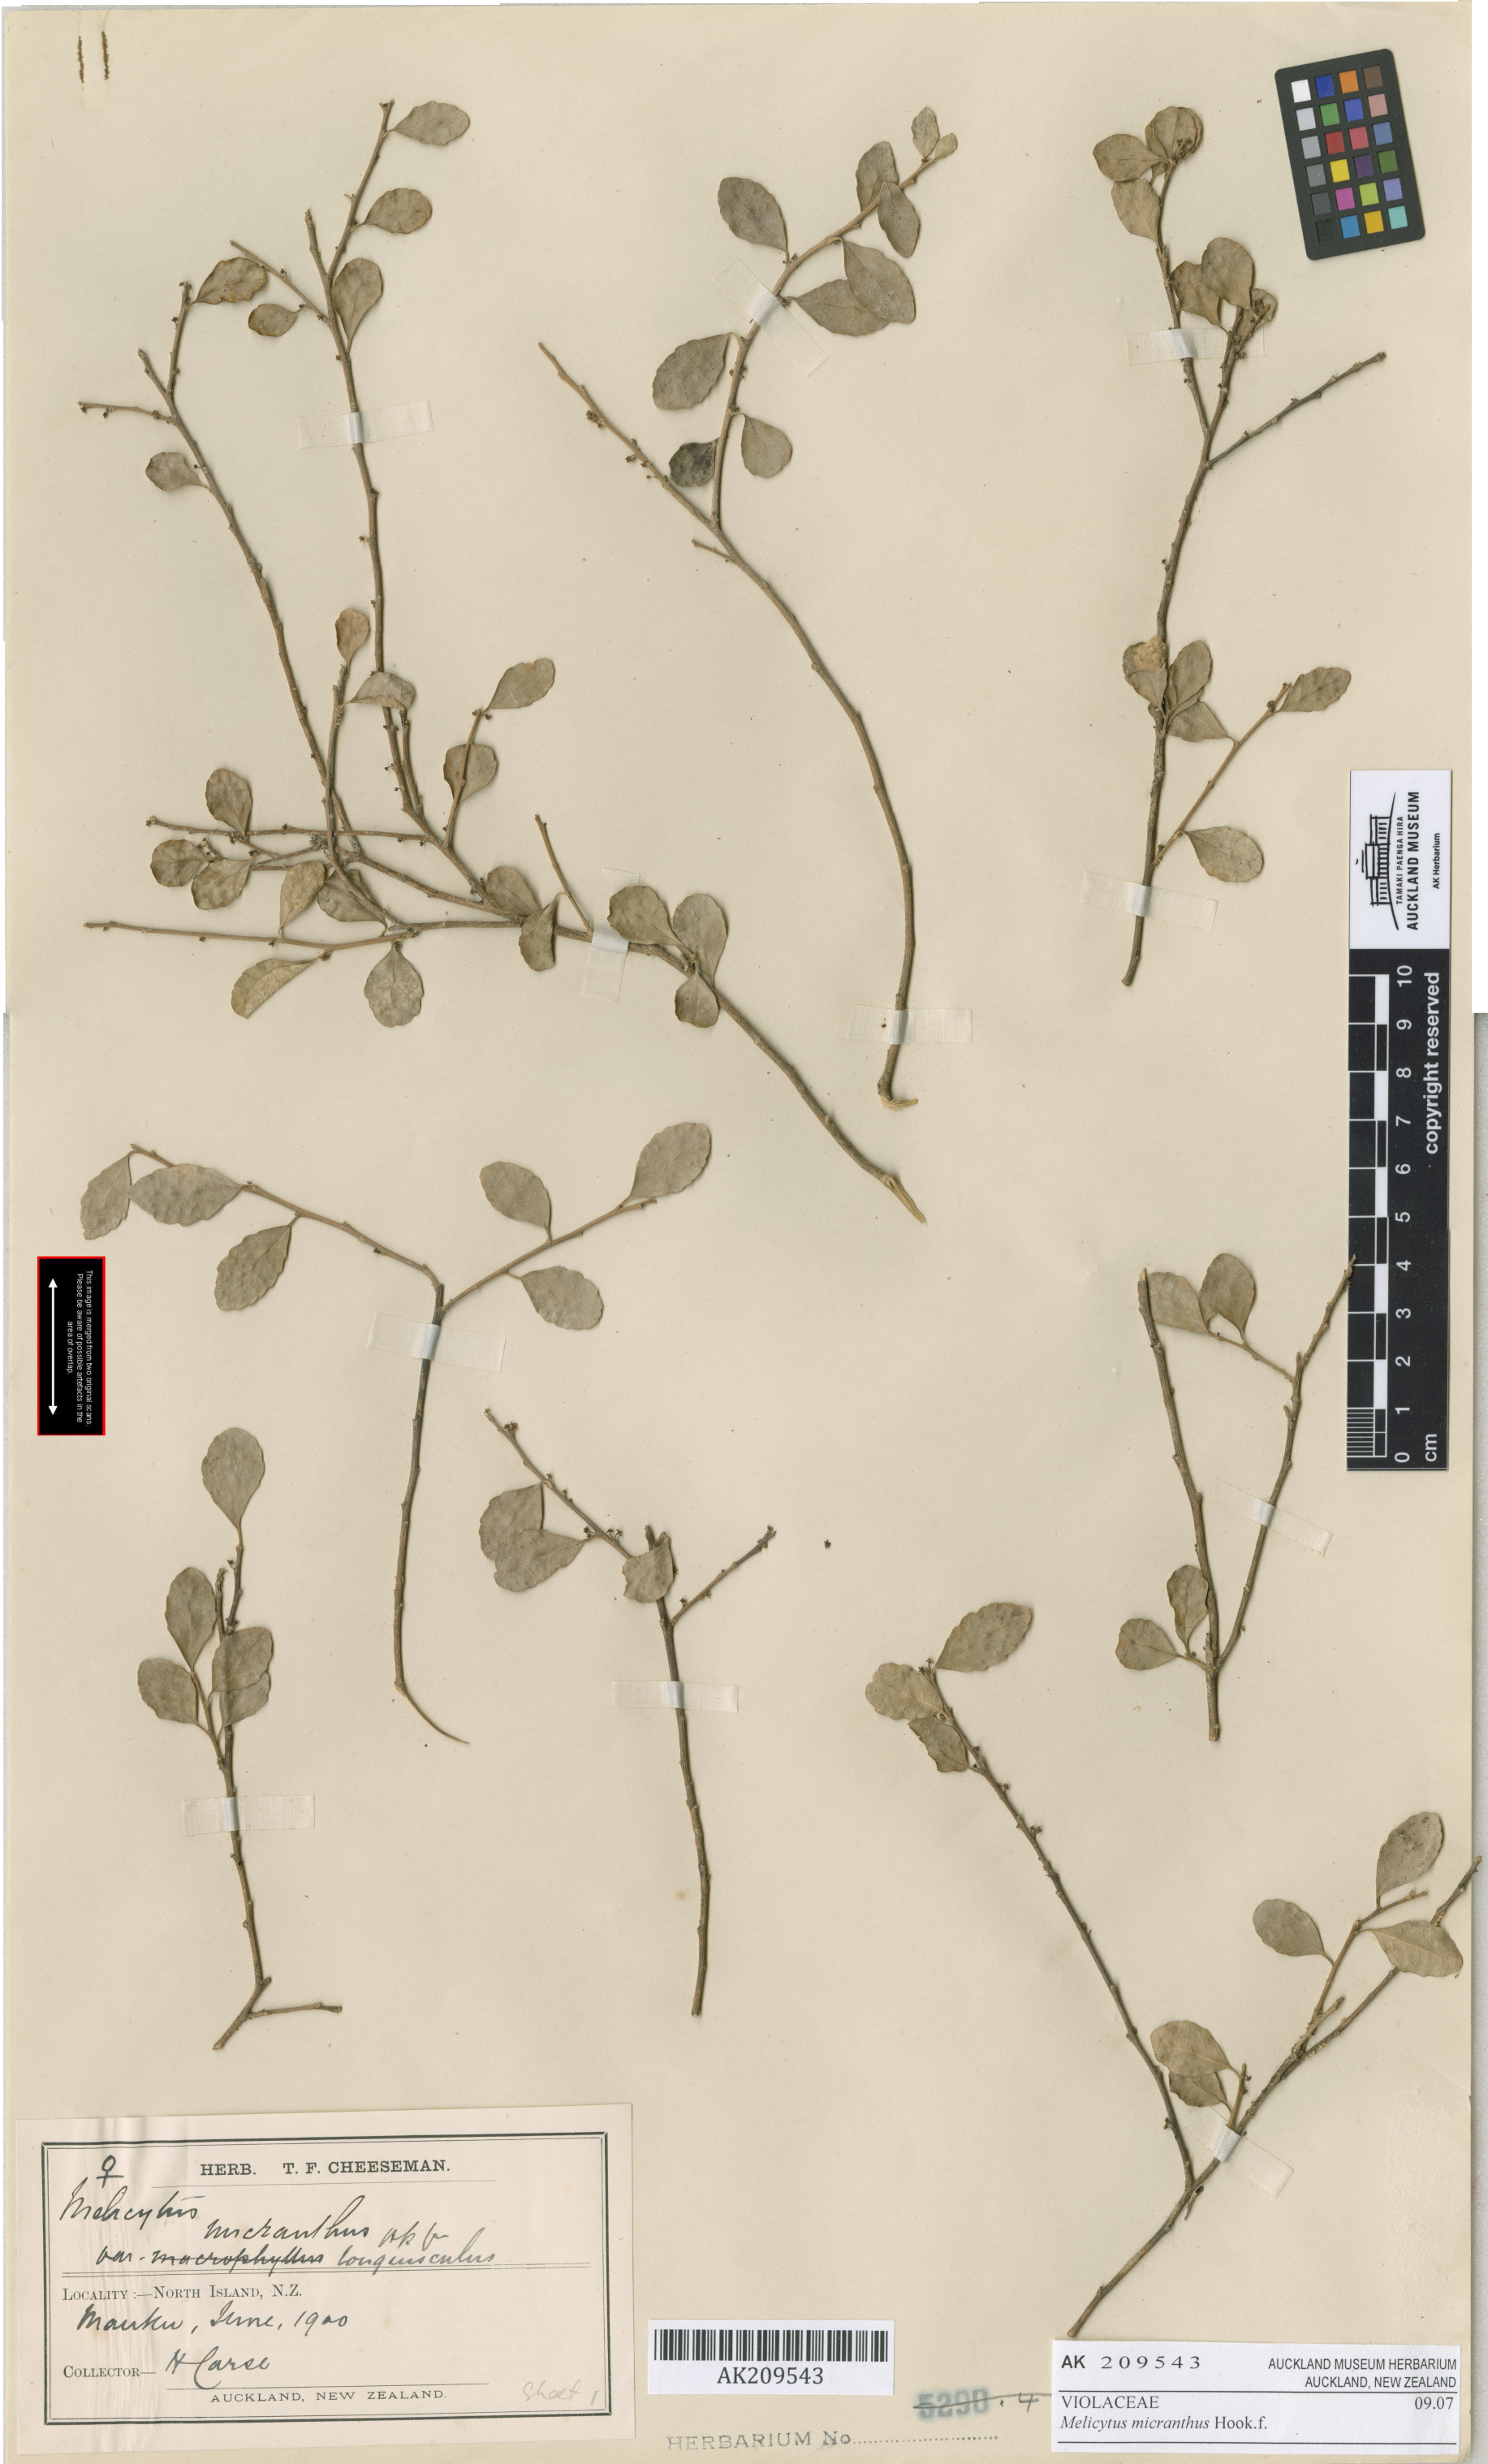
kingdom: Plantae
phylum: Tracheophyta
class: Magnoliopsida
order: Malpighiales
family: Violaceae
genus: Melicytus
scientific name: Melicytus micranthus
